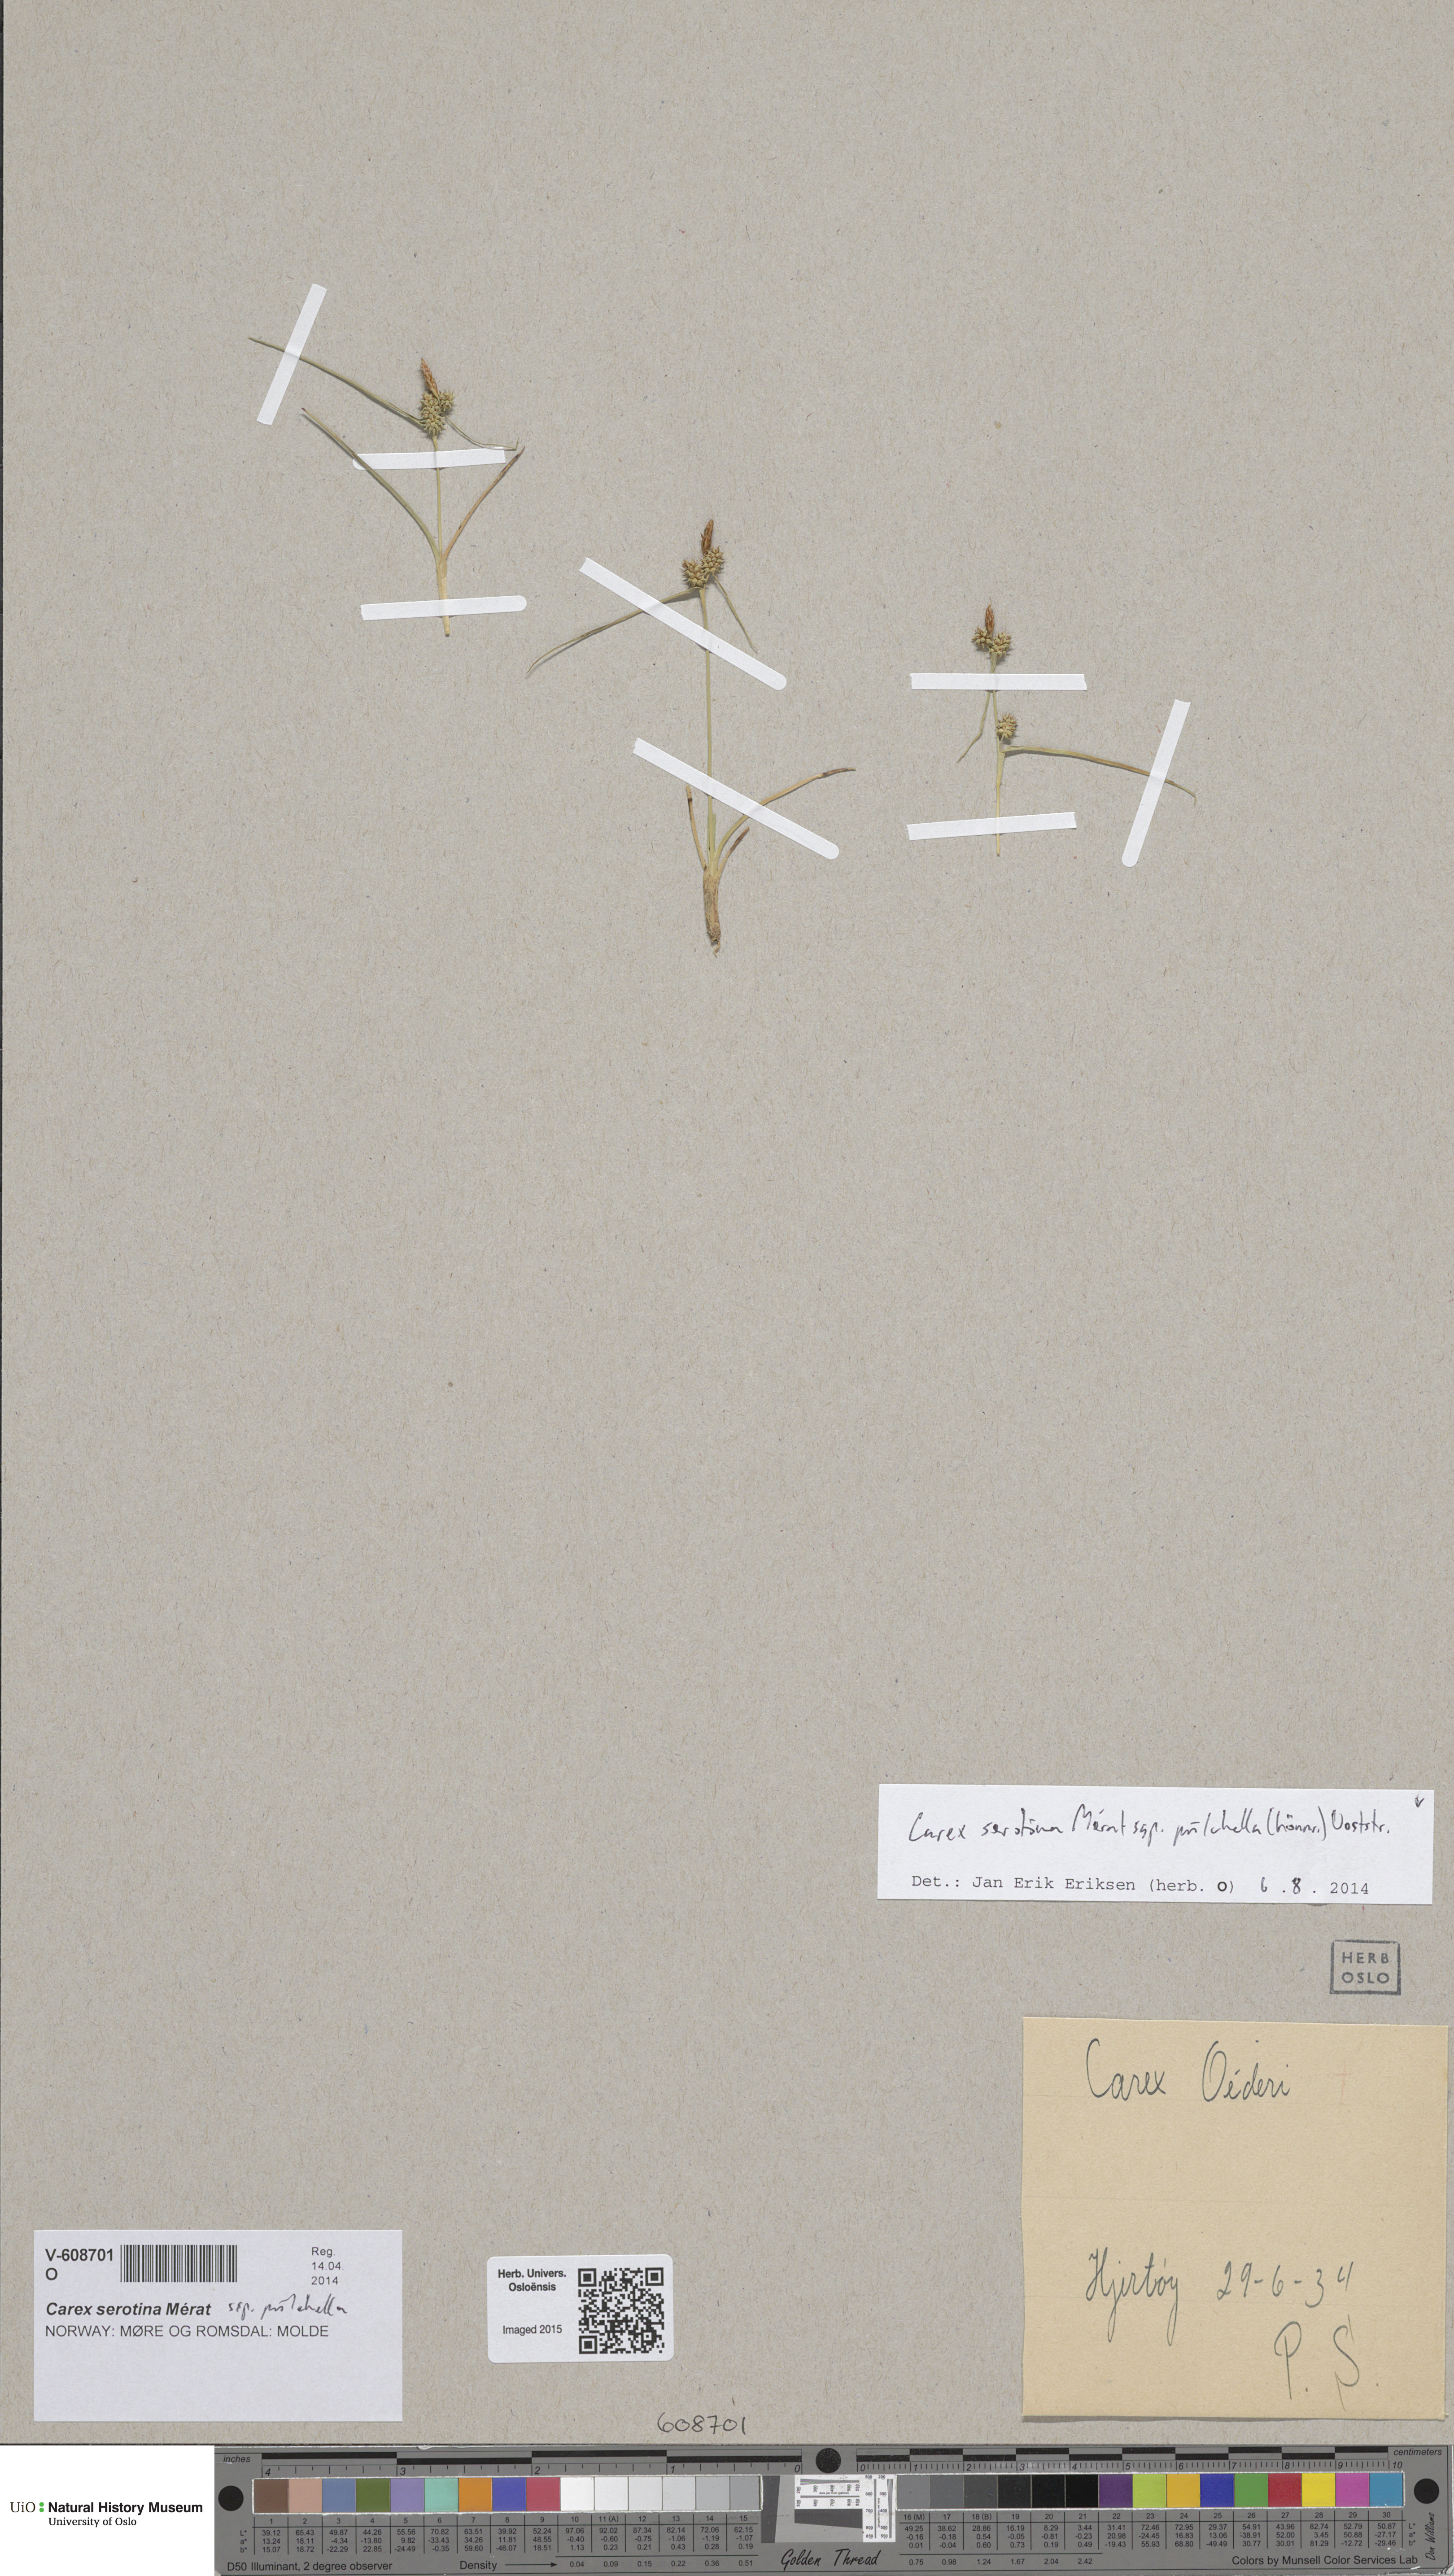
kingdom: Plantae
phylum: Tracheophyta
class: Liliopsida
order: Poales
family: Cyperaceae
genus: Carex
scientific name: Carex oederi
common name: Common & small-fruited yellow-sedge
